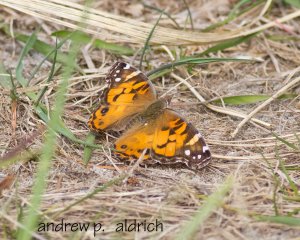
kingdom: Animalia
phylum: Arthropoda
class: Insecta
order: Lepidoptera
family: Nymphalidae
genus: Vanessa
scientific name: Vanessa virginiensis
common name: American Lady
